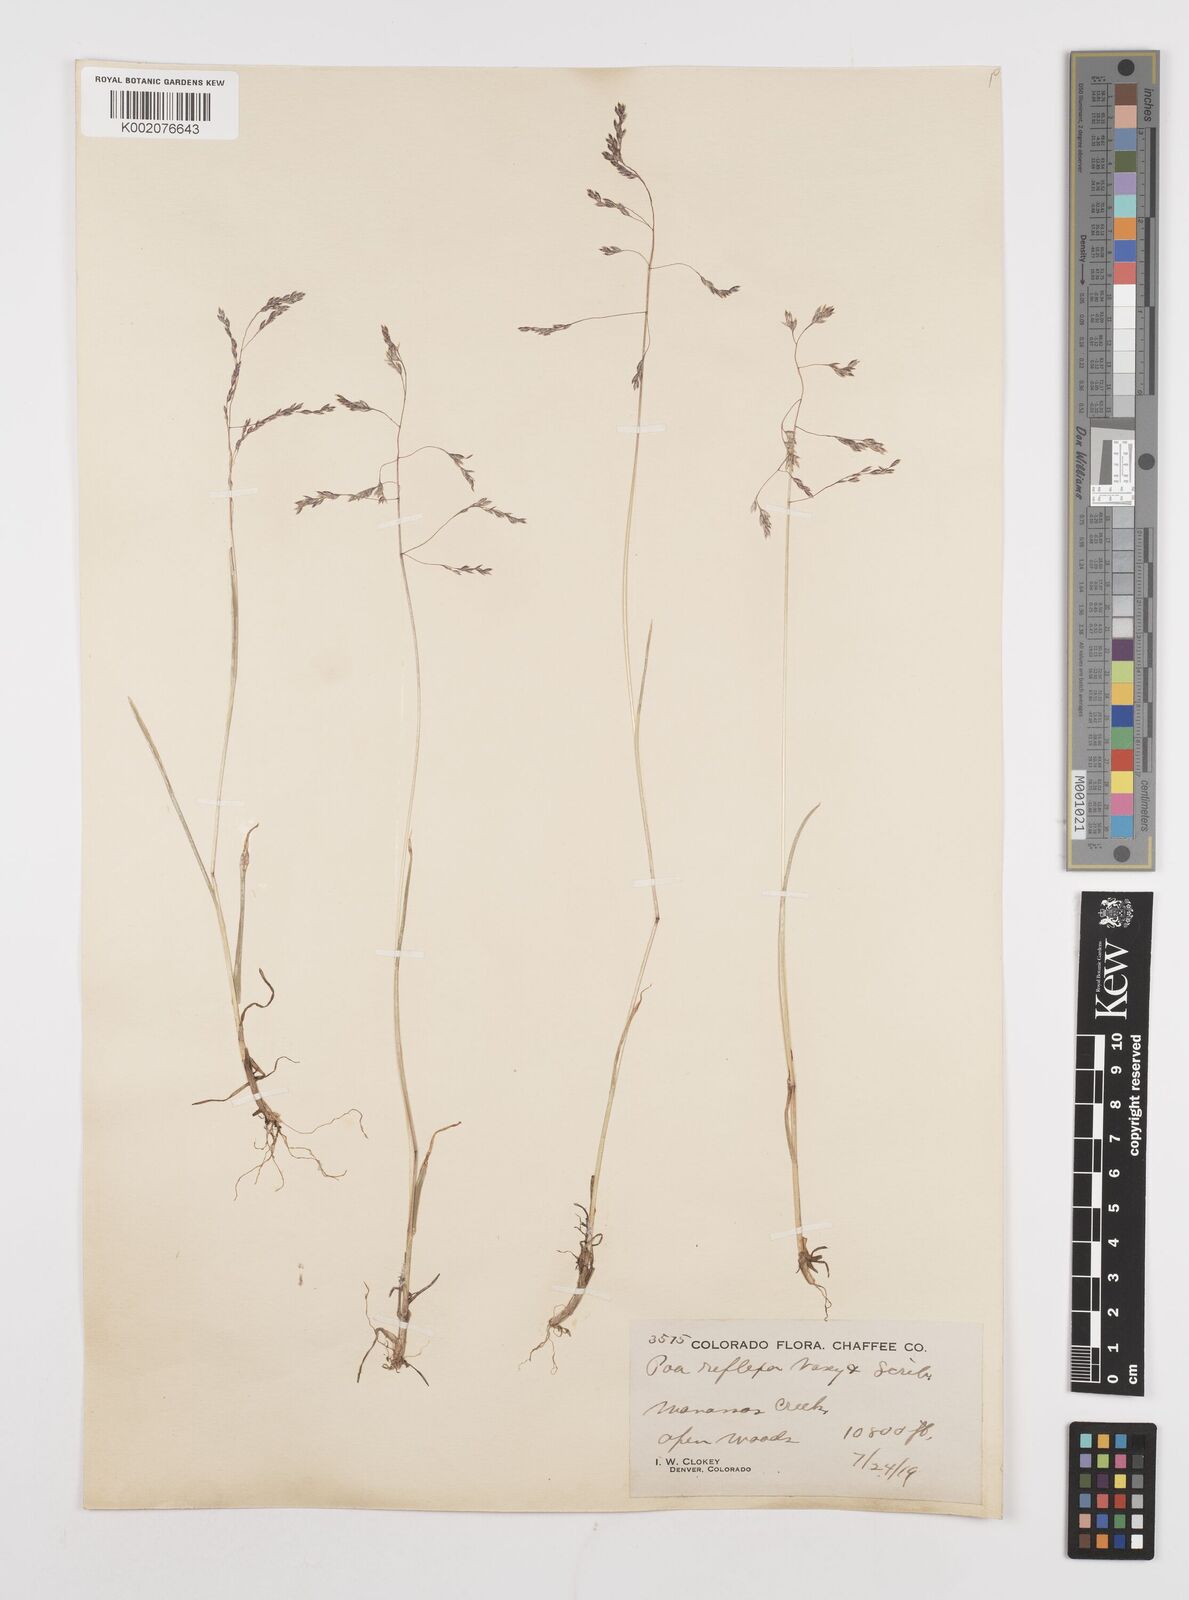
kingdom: Plantae
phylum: Tracheophyta
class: Liliopsida
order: Poales
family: Poaceae
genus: Poa
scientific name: Poa reflexa
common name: Nodding bluegrass
